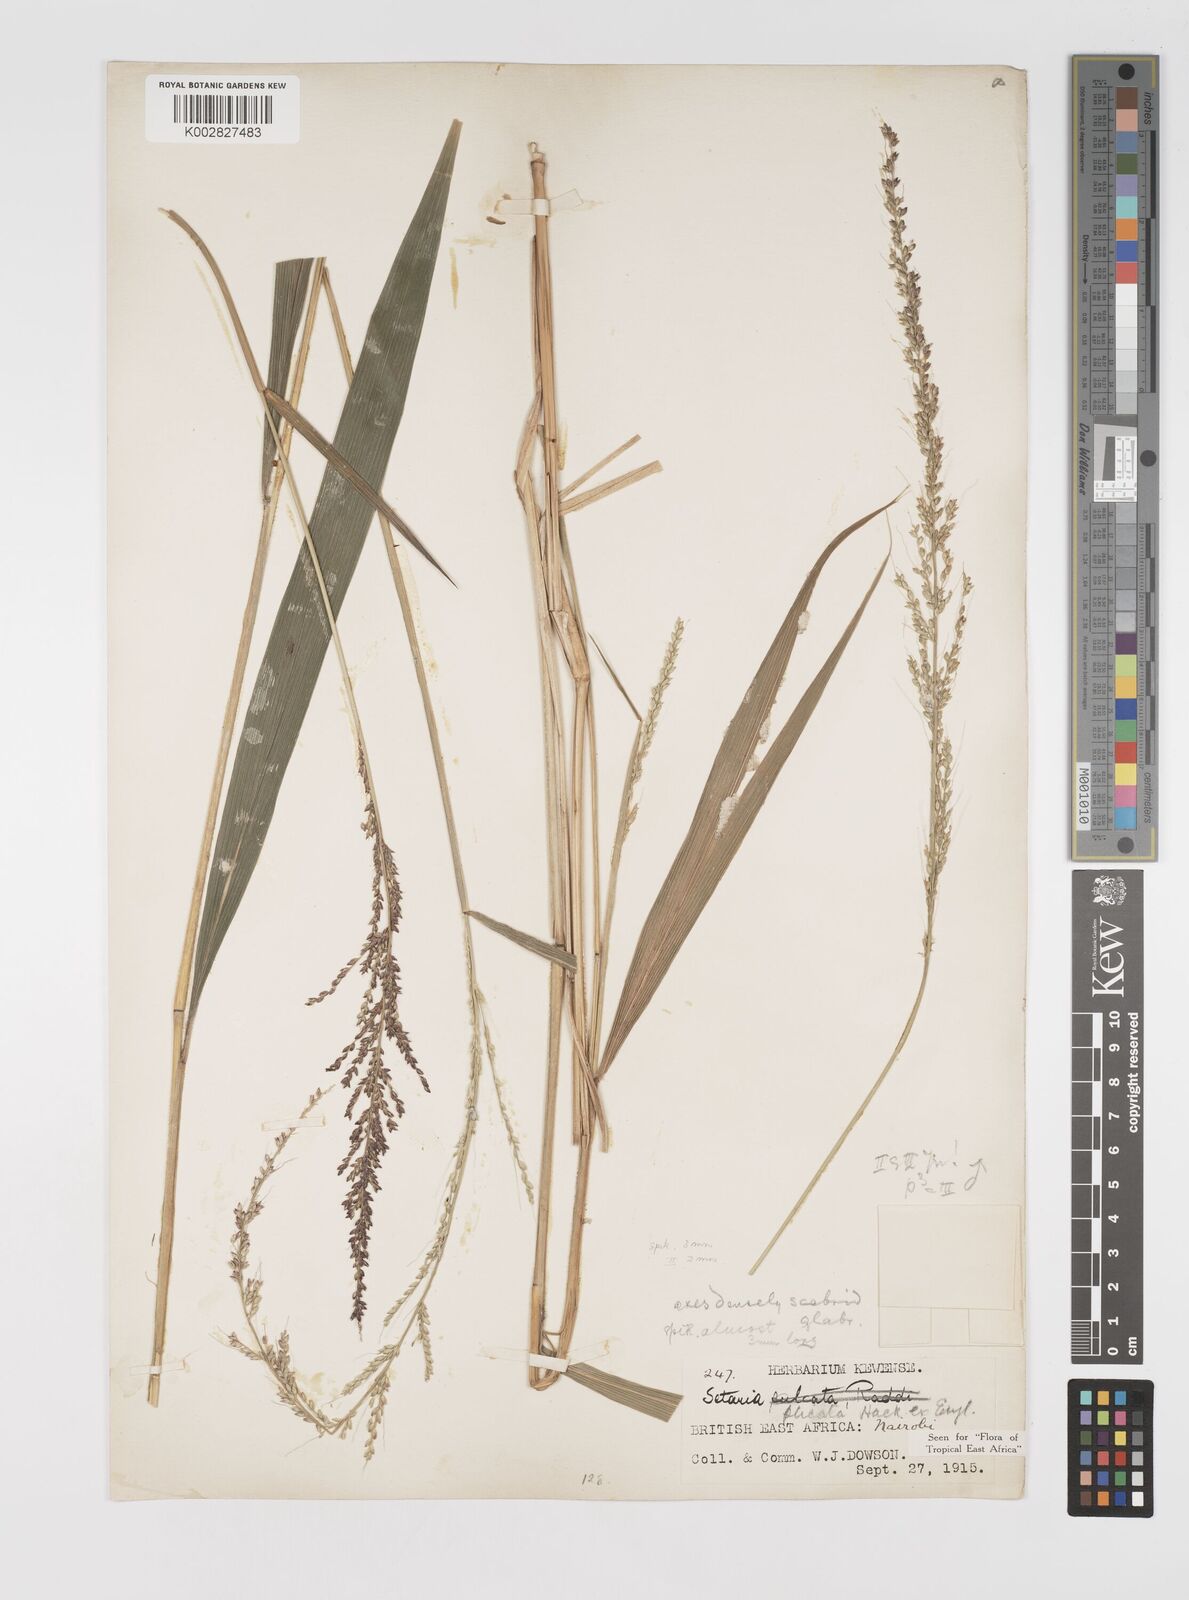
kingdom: Plantae
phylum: Tracheophyta
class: Liliopsida
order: Poales
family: Poaceae
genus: Setaria
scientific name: Setaria megaphylla
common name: Bigleaf bristlegrass
